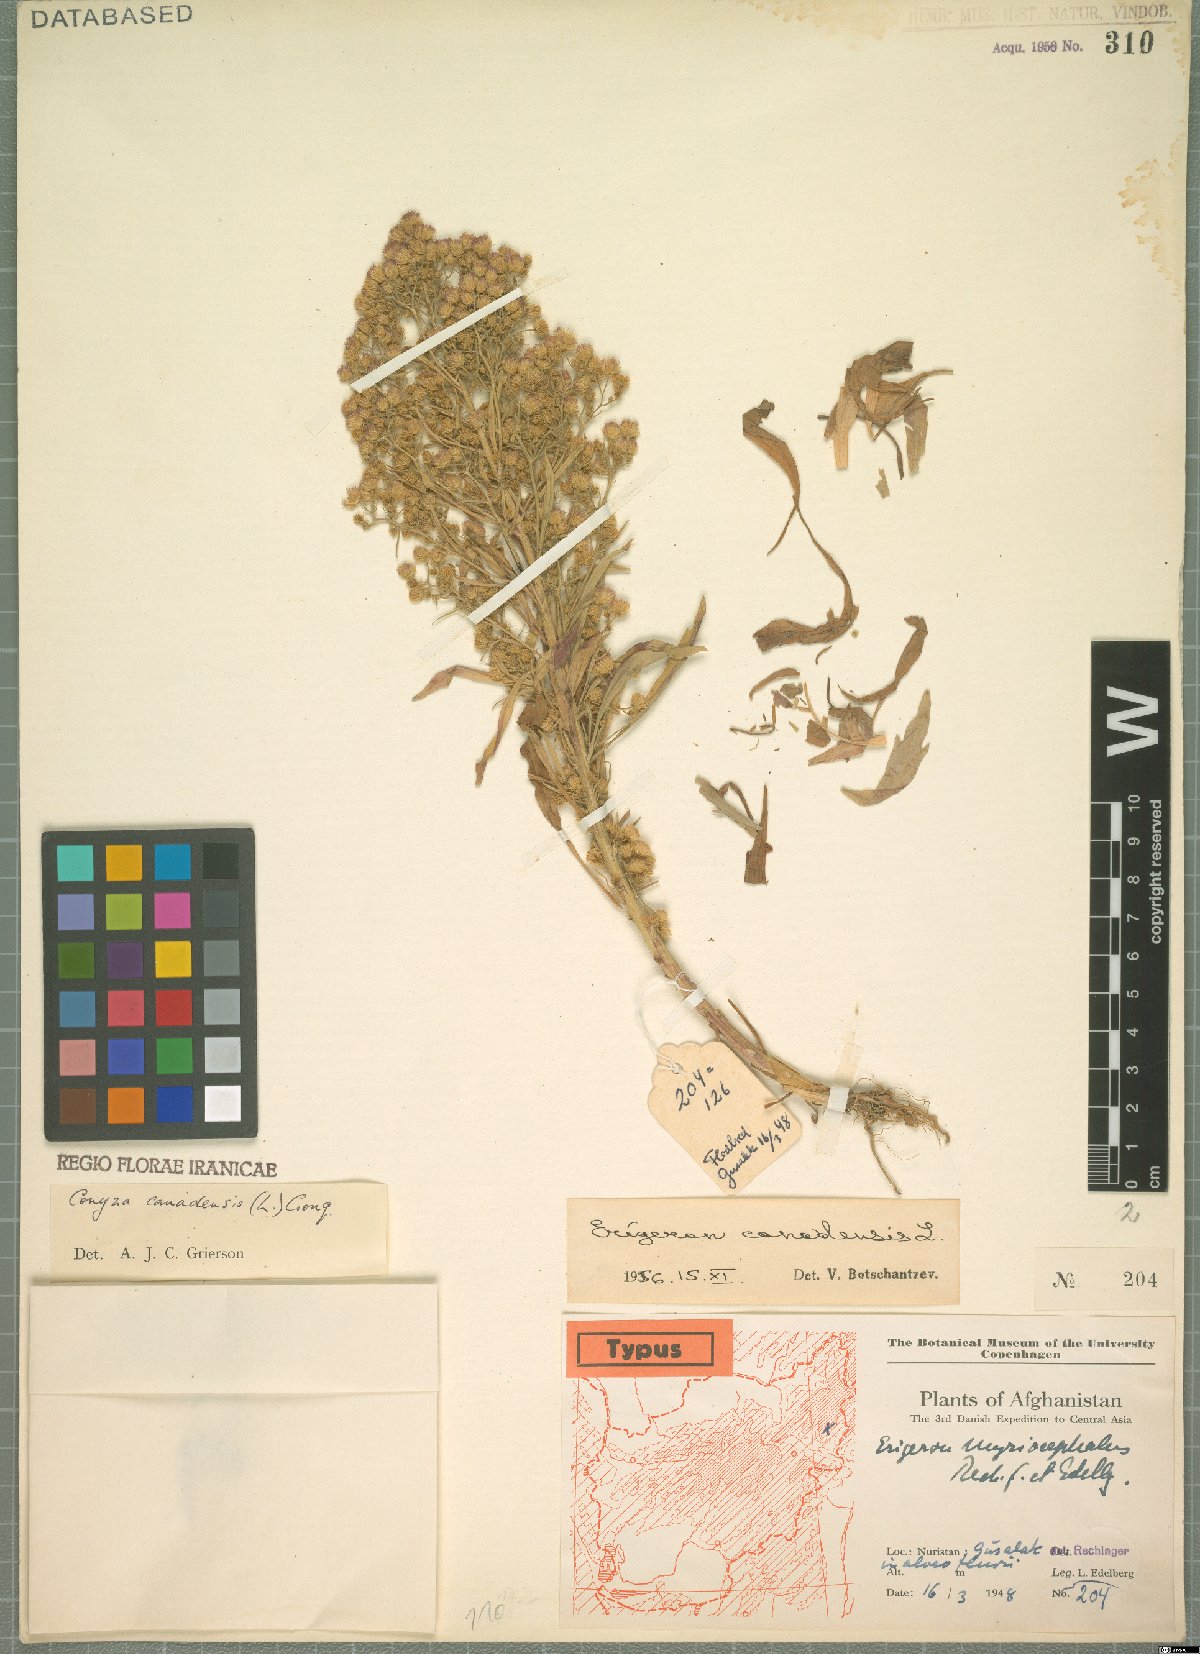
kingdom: Plantae
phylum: Tracheophyta
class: Magnoliopsida
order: Asterales
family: Asteraceae
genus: Erigeron
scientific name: Erigeron canadensis
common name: Canadian fleabane
